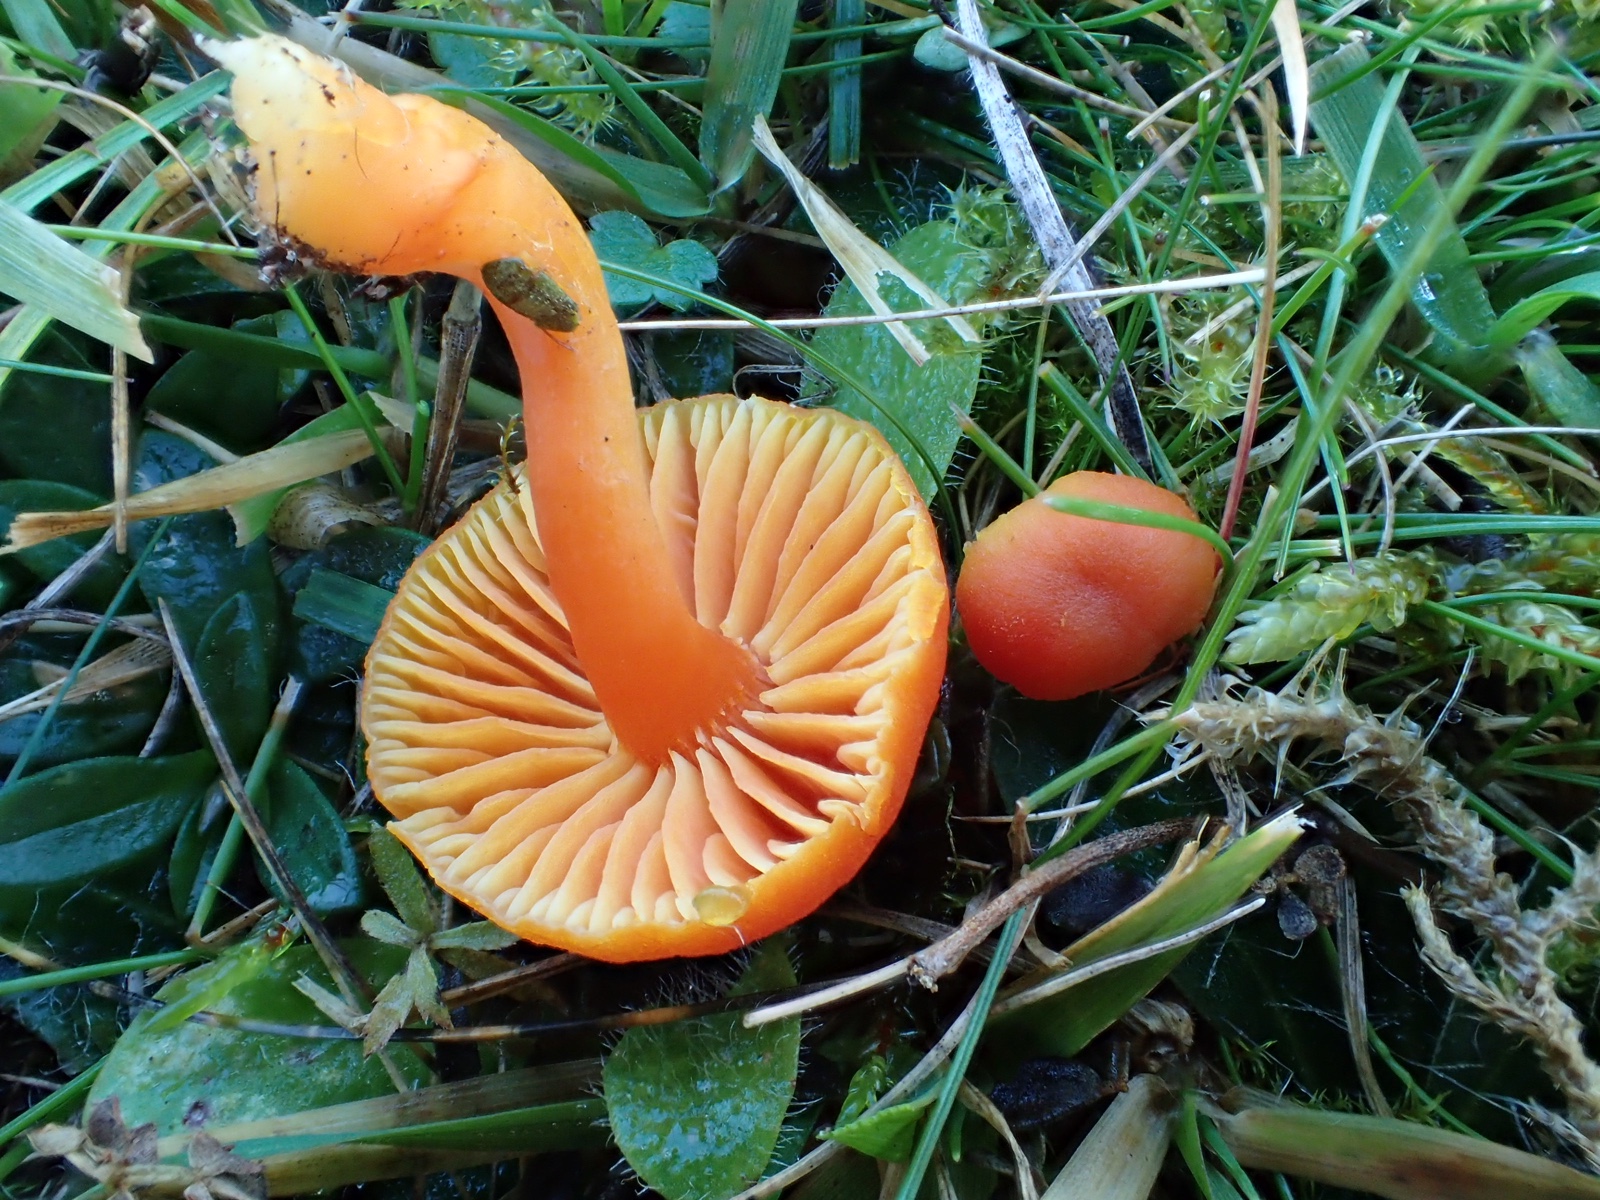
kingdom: Fungi
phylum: Basidiomycota
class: Agaricomycetes
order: Agaricales
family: Hygrophoraceae
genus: Hygrocybe
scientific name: Hygrocybe miniata
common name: mønje-vokshat
